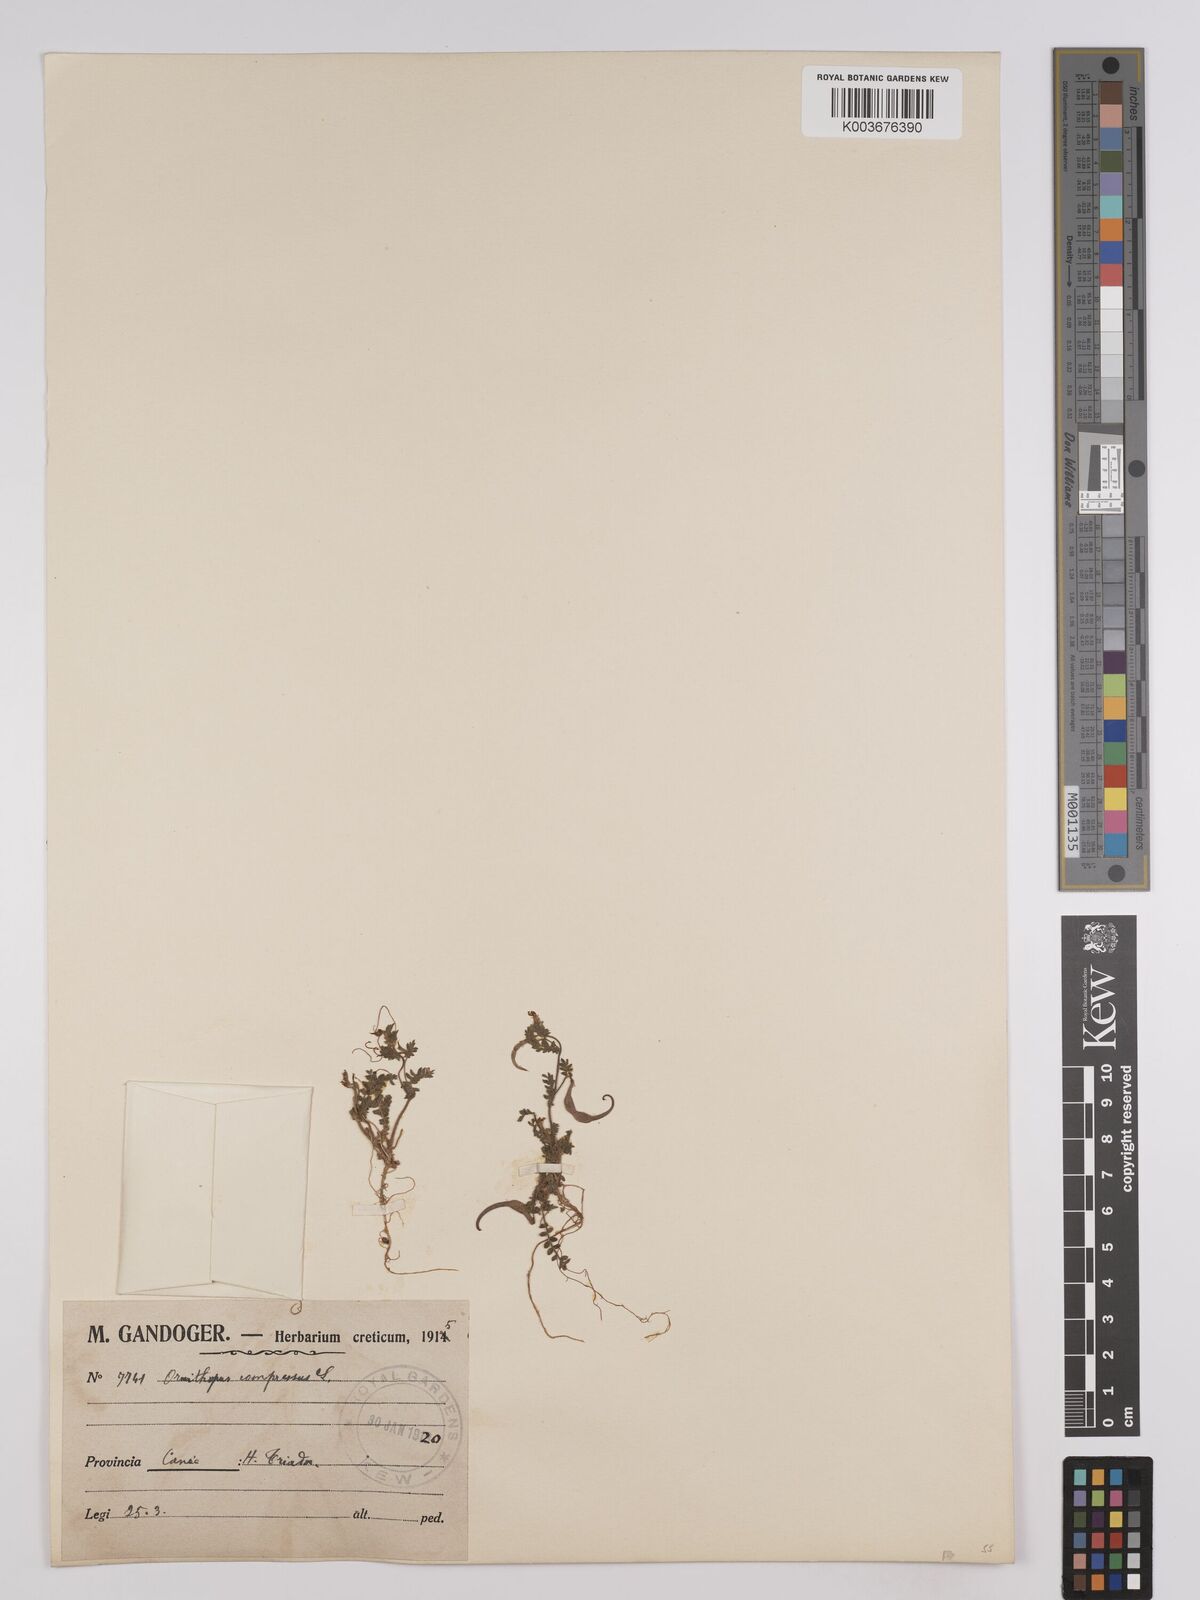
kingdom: Plantae
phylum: Tracheophyta
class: Magnoliopsida
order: Fabales
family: Fabaceae
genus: Ornithopus
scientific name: Ornithopus compressus
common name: Yellow serradella
